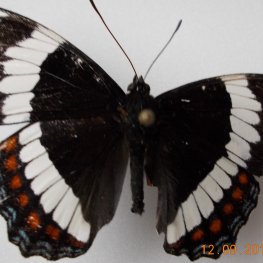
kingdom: Animalia
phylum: Arthropoda
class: Insecta
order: Lepidoptera
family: Nymphalidae
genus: Limenitis
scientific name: Limenitis arthemis
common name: Red-spotted Admiral
